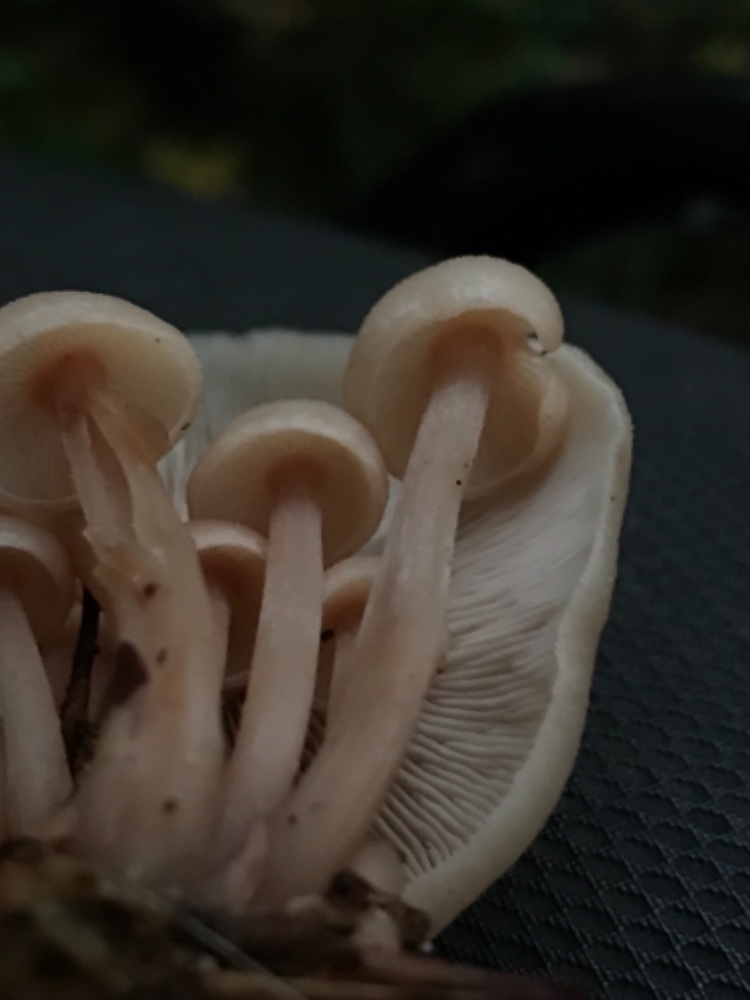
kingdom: Fungi
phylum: Basidiomycota
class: Agaricomycetes
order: Agaricales
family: Omphalotaceae
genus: Collybiopsis
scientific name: Collybiopsis confluens
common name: knippe-fladhat
